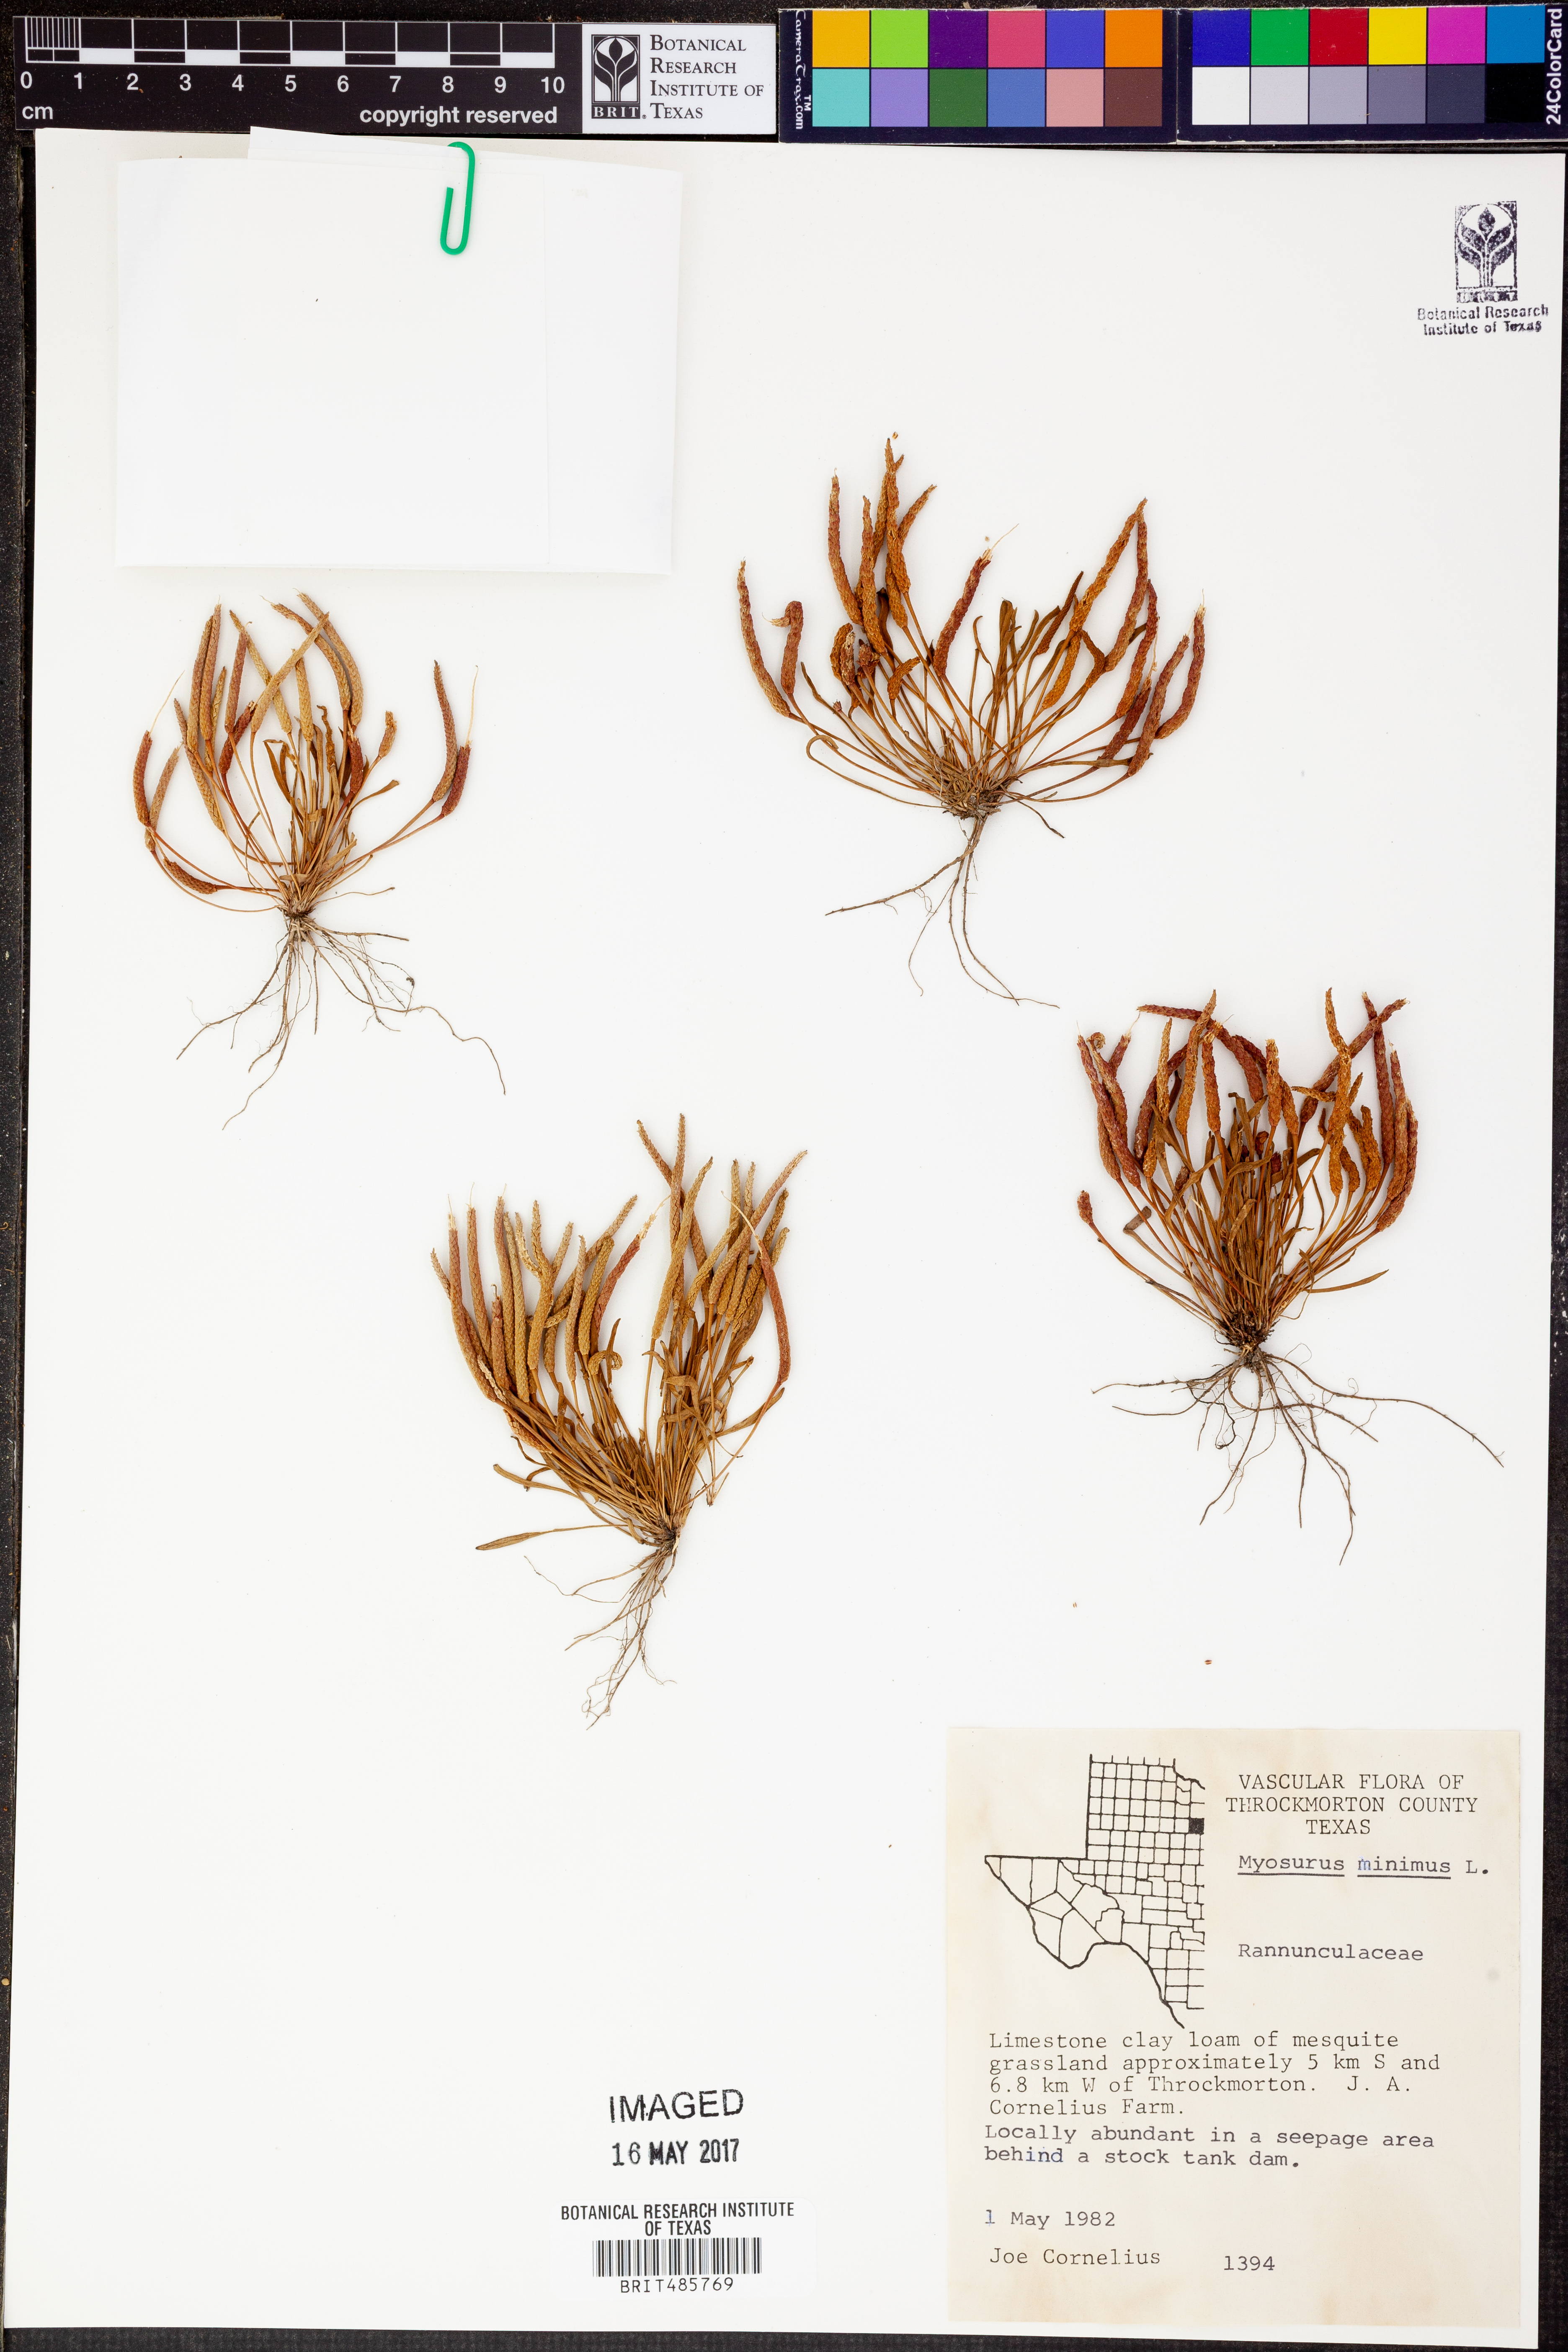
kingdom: Plantae
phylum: Tracheophyta
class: Magnoliopsida
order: Ranunculales
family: Ranunculaceae
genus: Myosurus
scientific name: Myosurus minimus
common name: Mousetail
